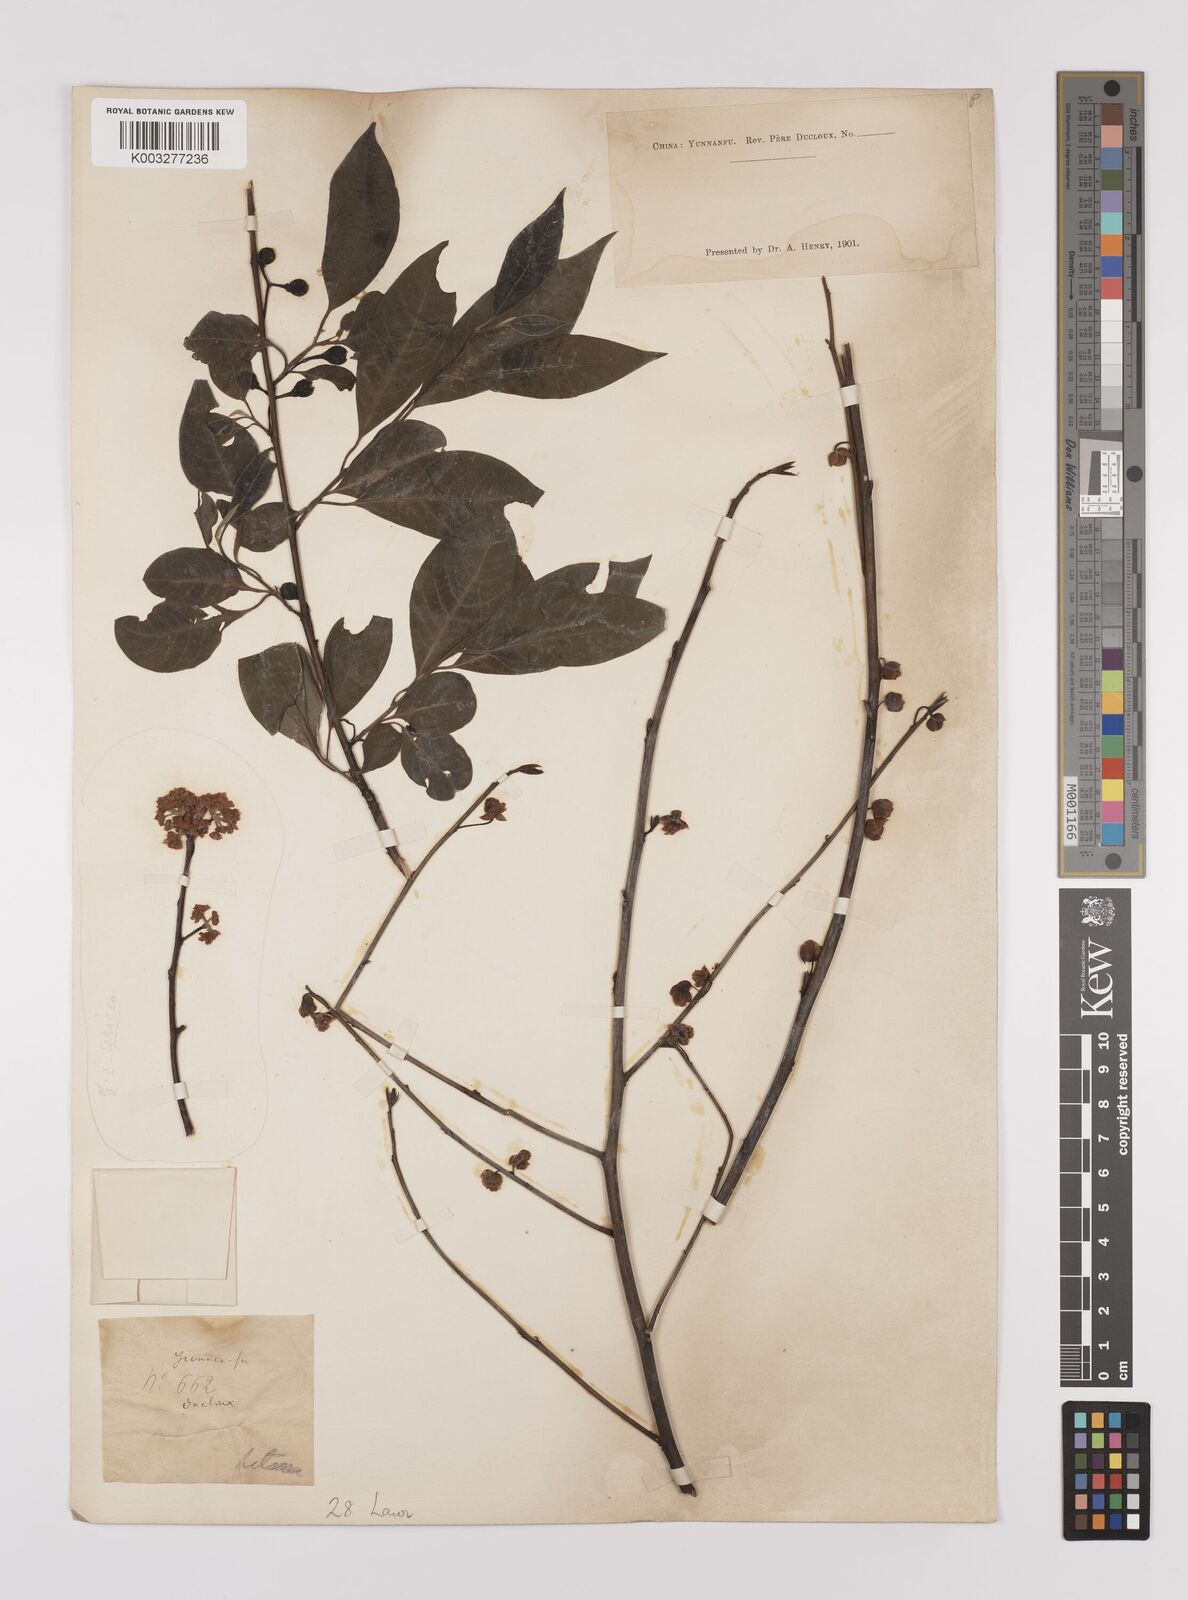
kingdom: Plantae
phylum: Tracheophyta
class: Magnoliopsida
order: Laurales
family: Lauraceae
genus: Lindera
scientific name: Lindera pipericarpa
